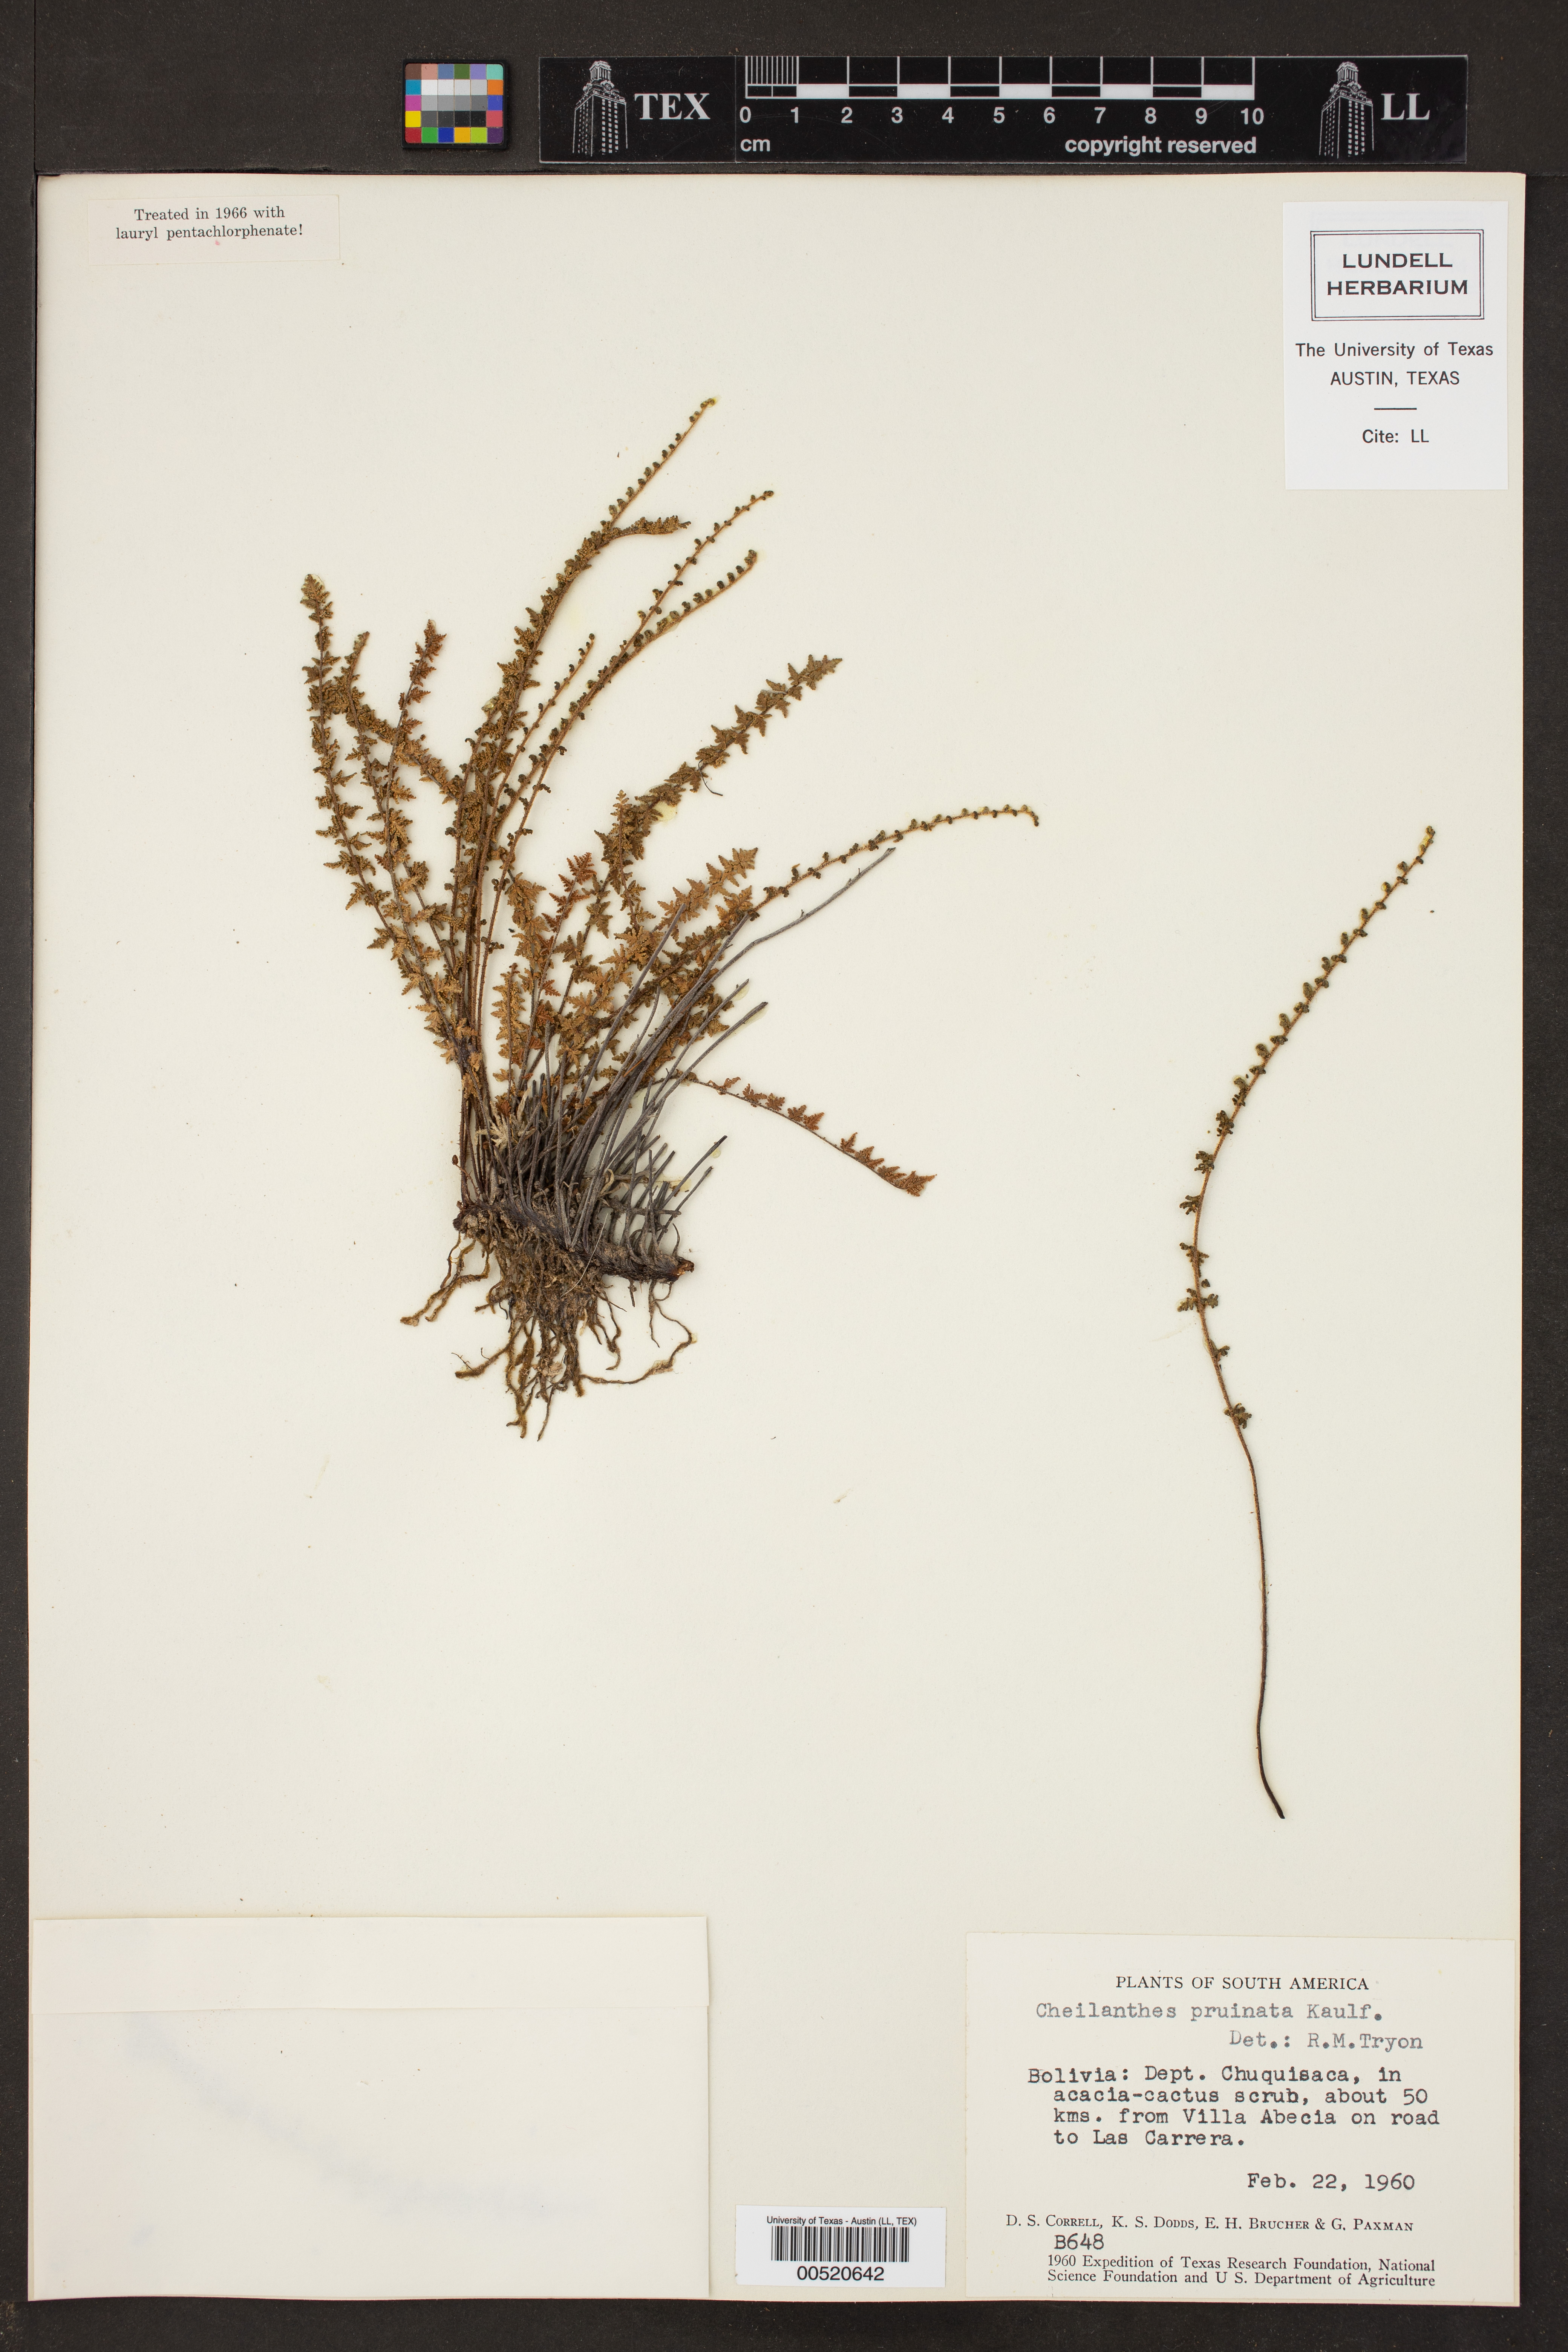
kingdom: Plantae
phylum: Tracheophyta
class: Polypodiopsida
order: Polypodiales
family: Pteridaceae
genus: Cheilanthes
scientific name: Cheilanthes pruinata
